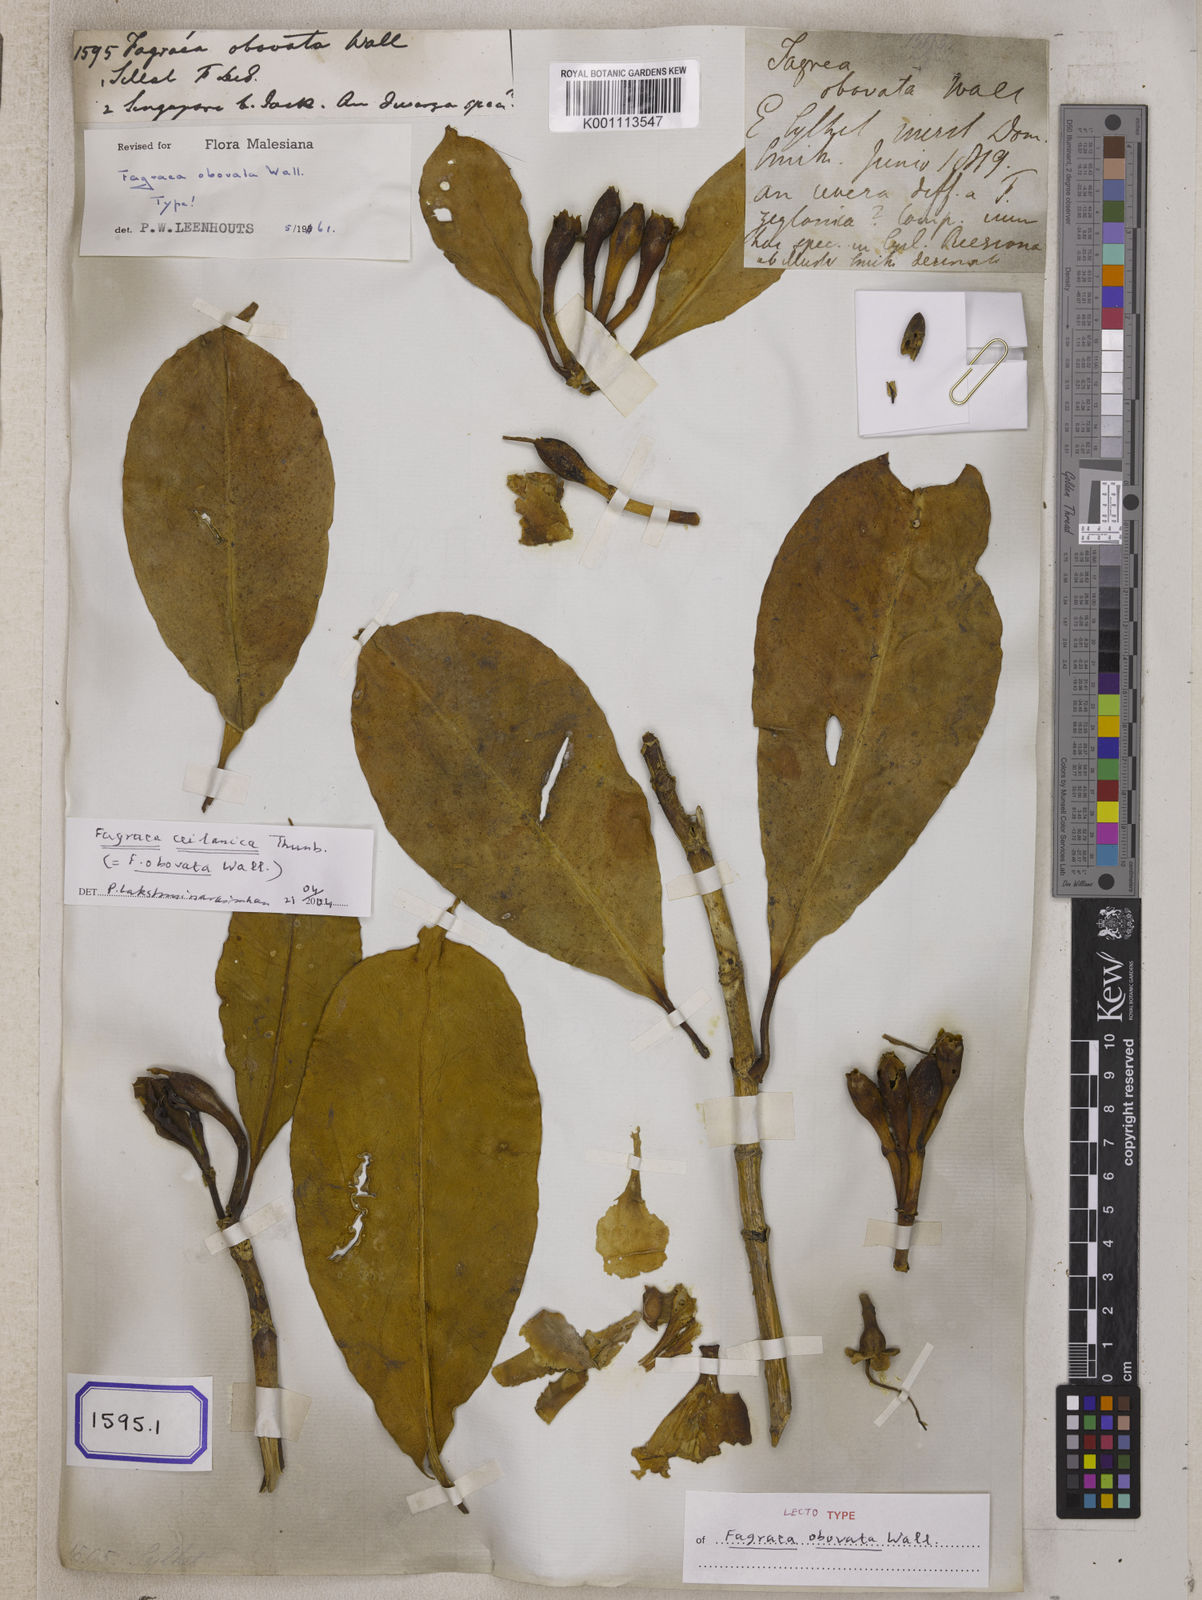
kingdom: Plantae
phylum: Tracheophyta
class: Magnoliopsida
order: Gentianales
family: Gentianaceae
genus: Fagraea
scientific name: Fagraea ceilanica
